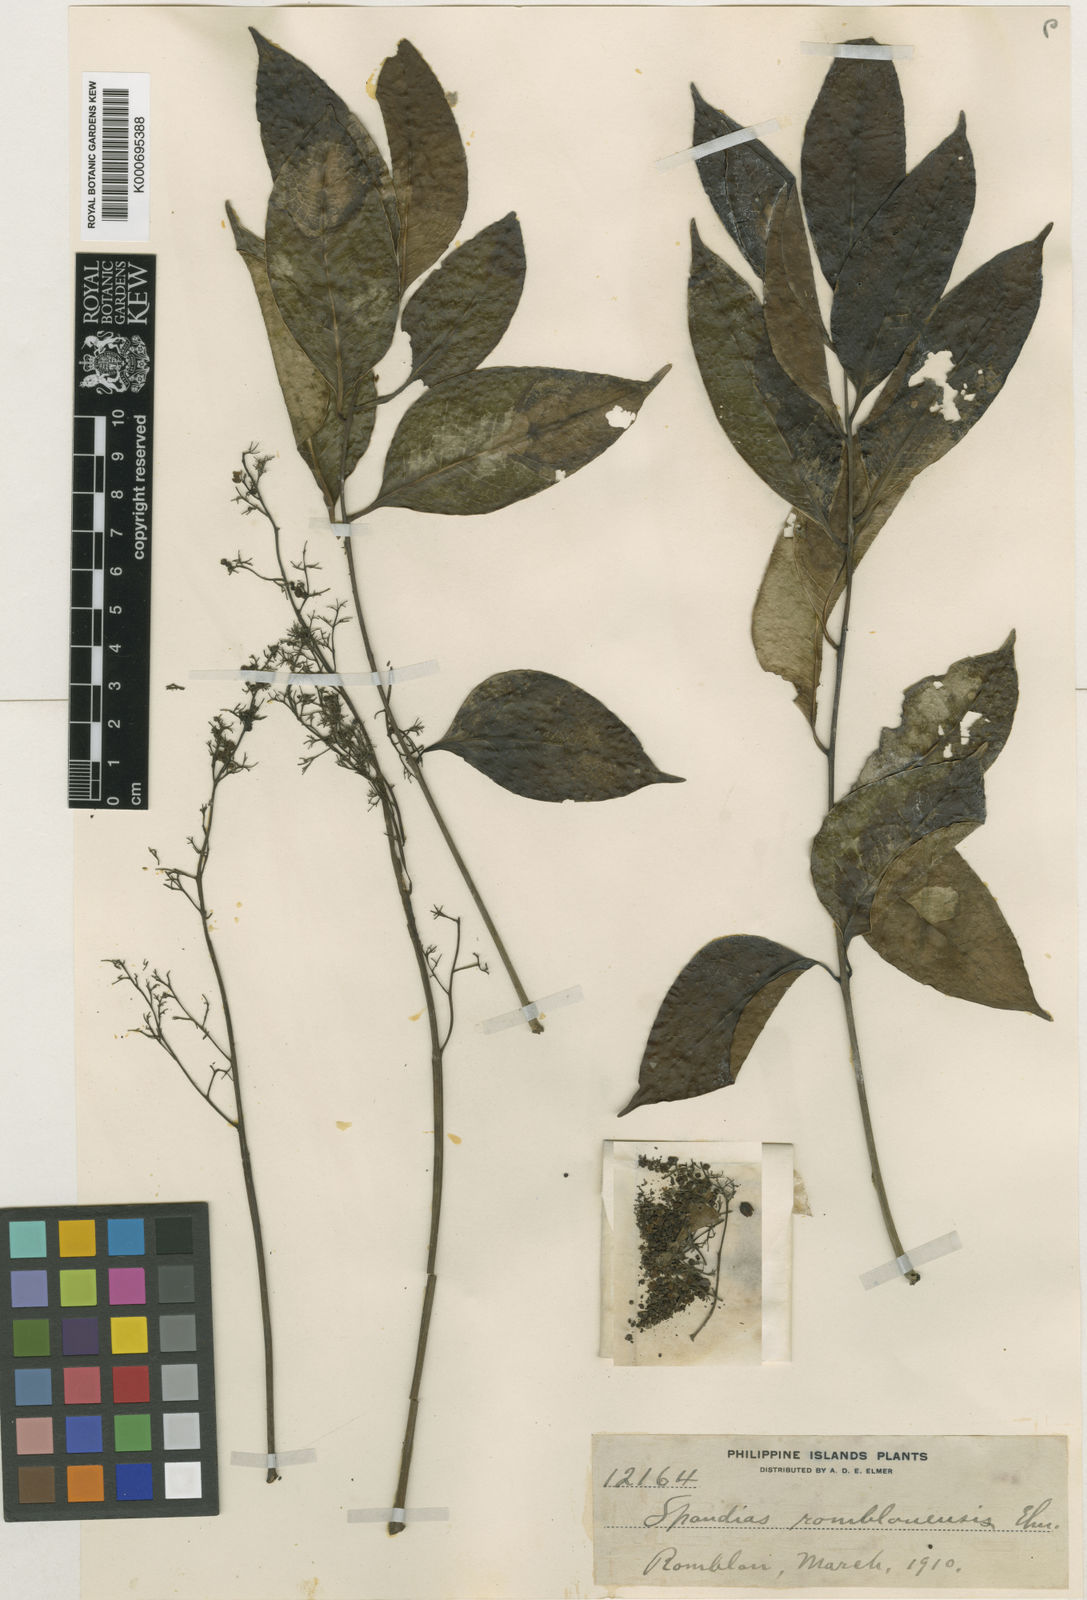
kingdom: Plantae
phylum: Tracheophyta
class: Magnoliopsida
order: Sapindales
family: Anacardiaceae
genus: Parishia
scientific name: Parishia malabog
